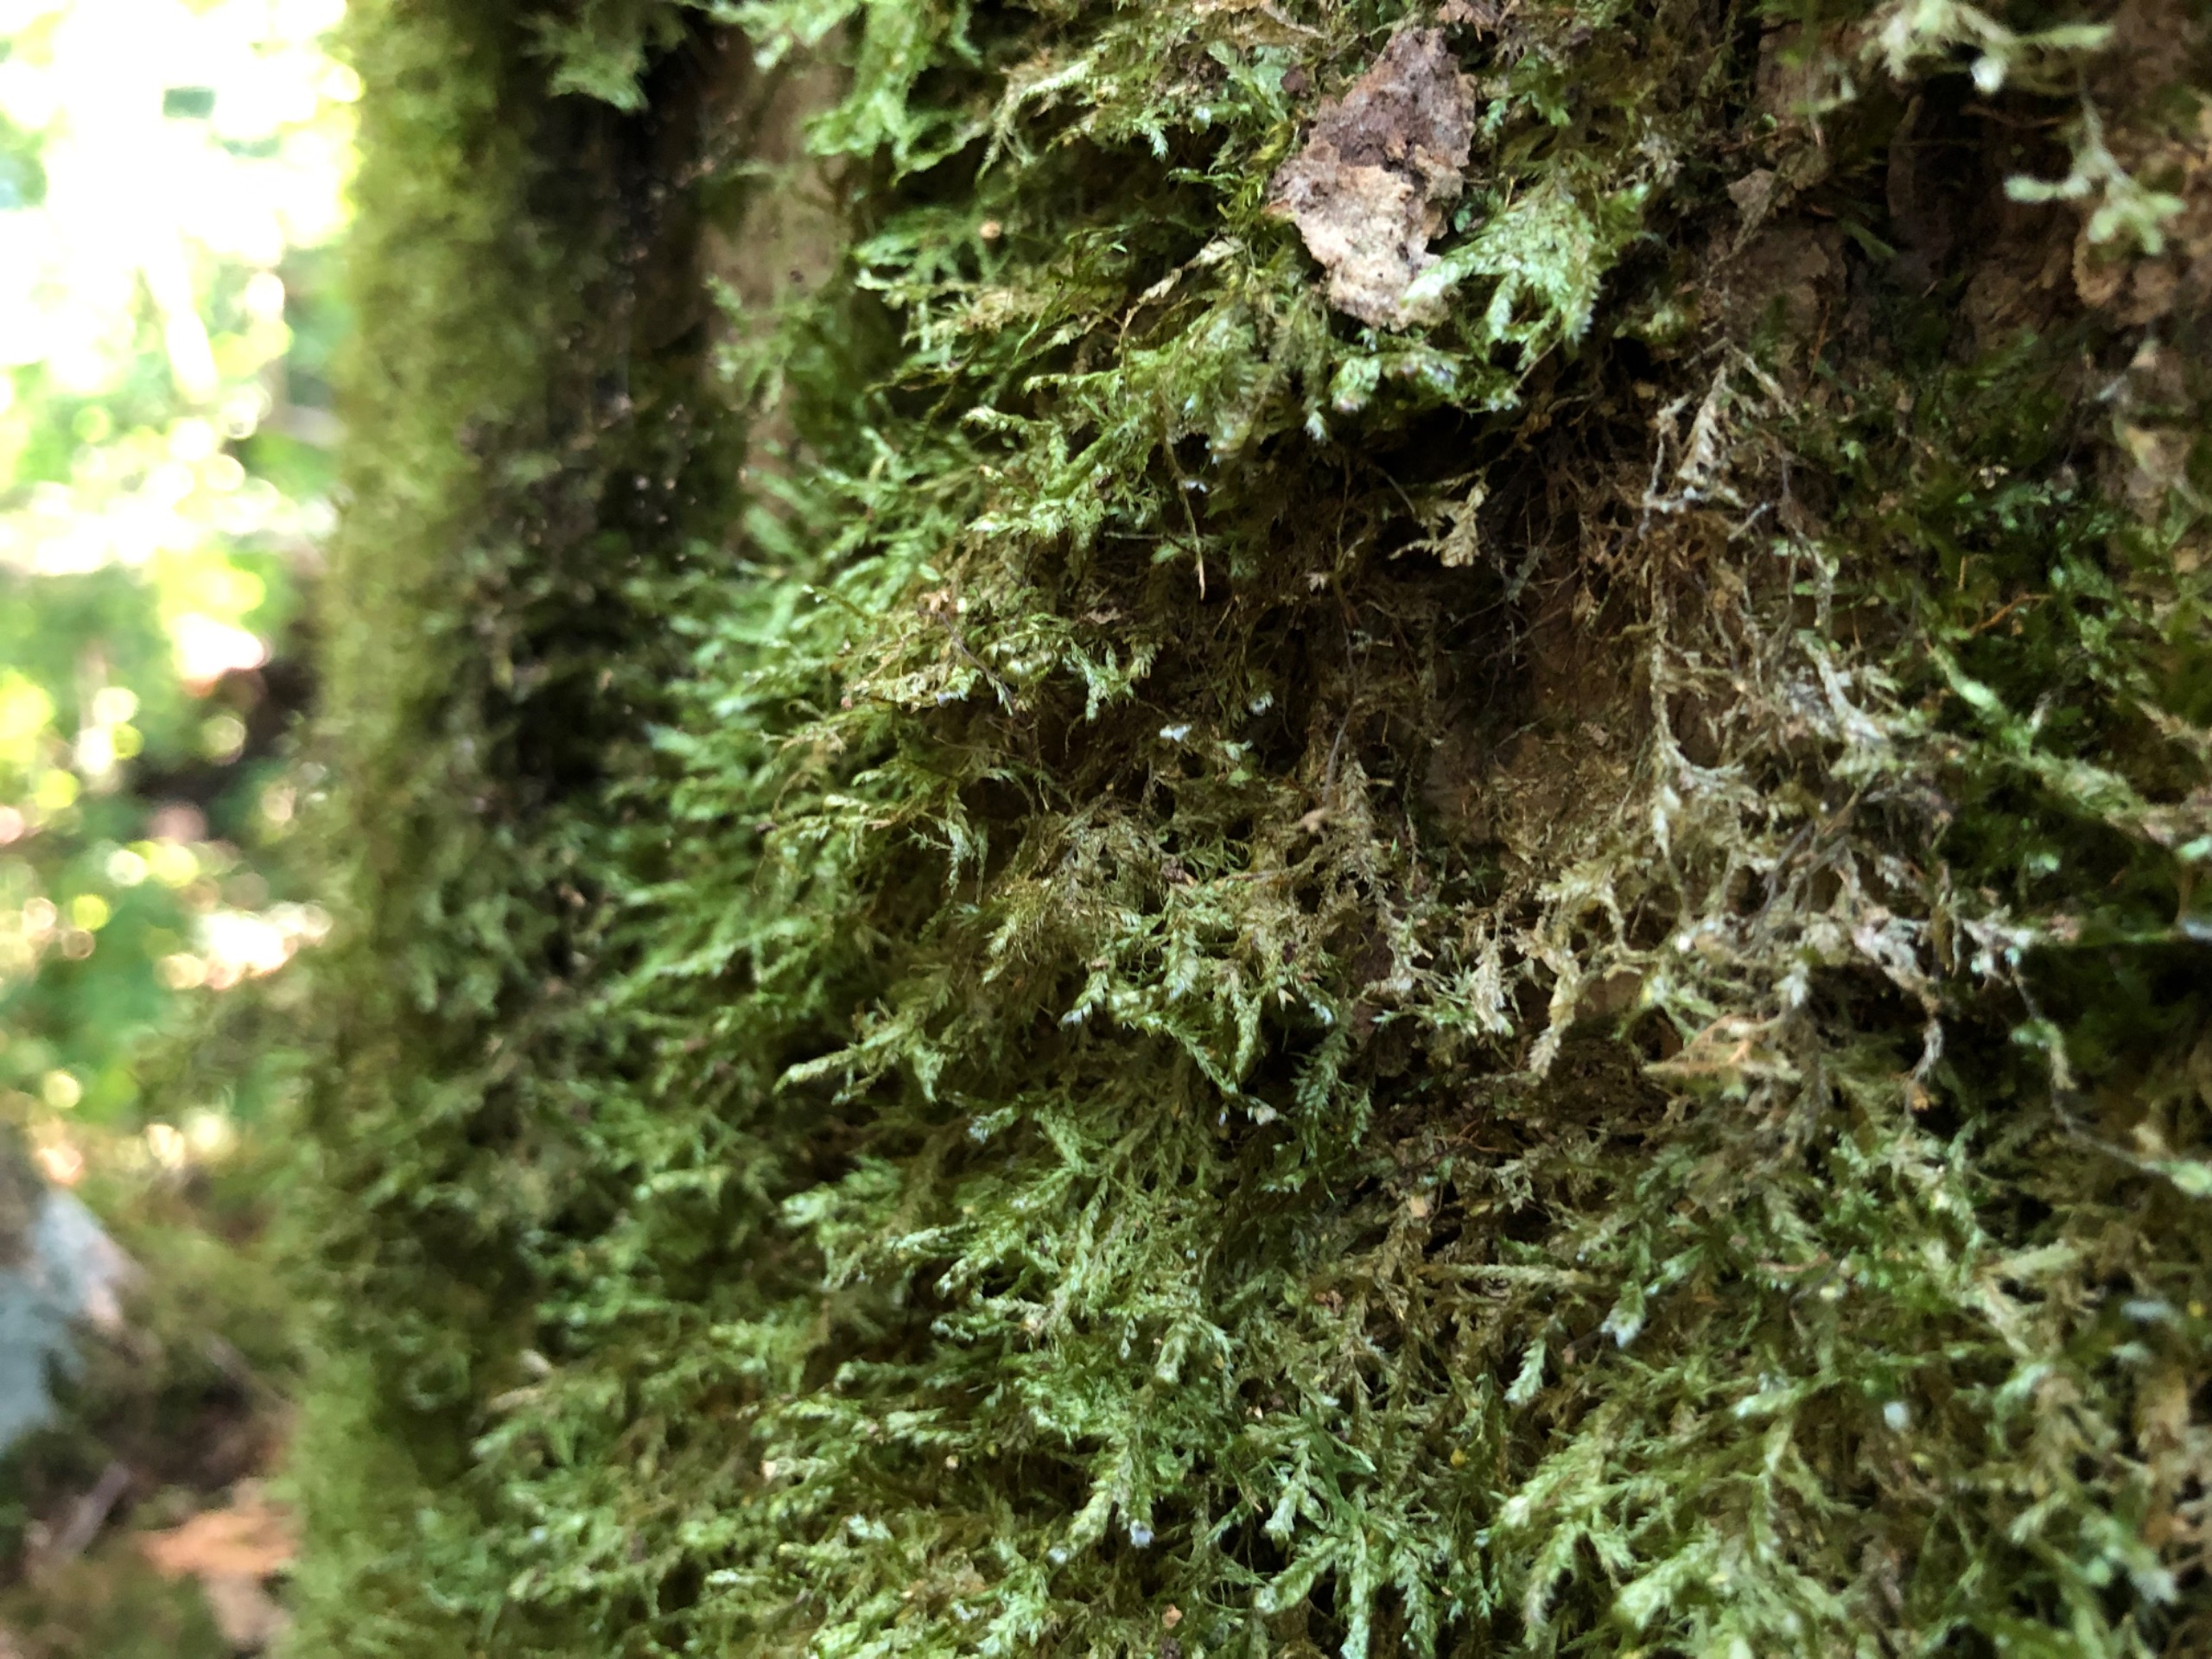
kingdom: Plantae
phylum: Bryophyta
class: Bryopsida
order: Hypnales
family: Neckeraceae
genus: Alleniella
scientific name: Alleniella complanata
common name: Almindelig fladmos
